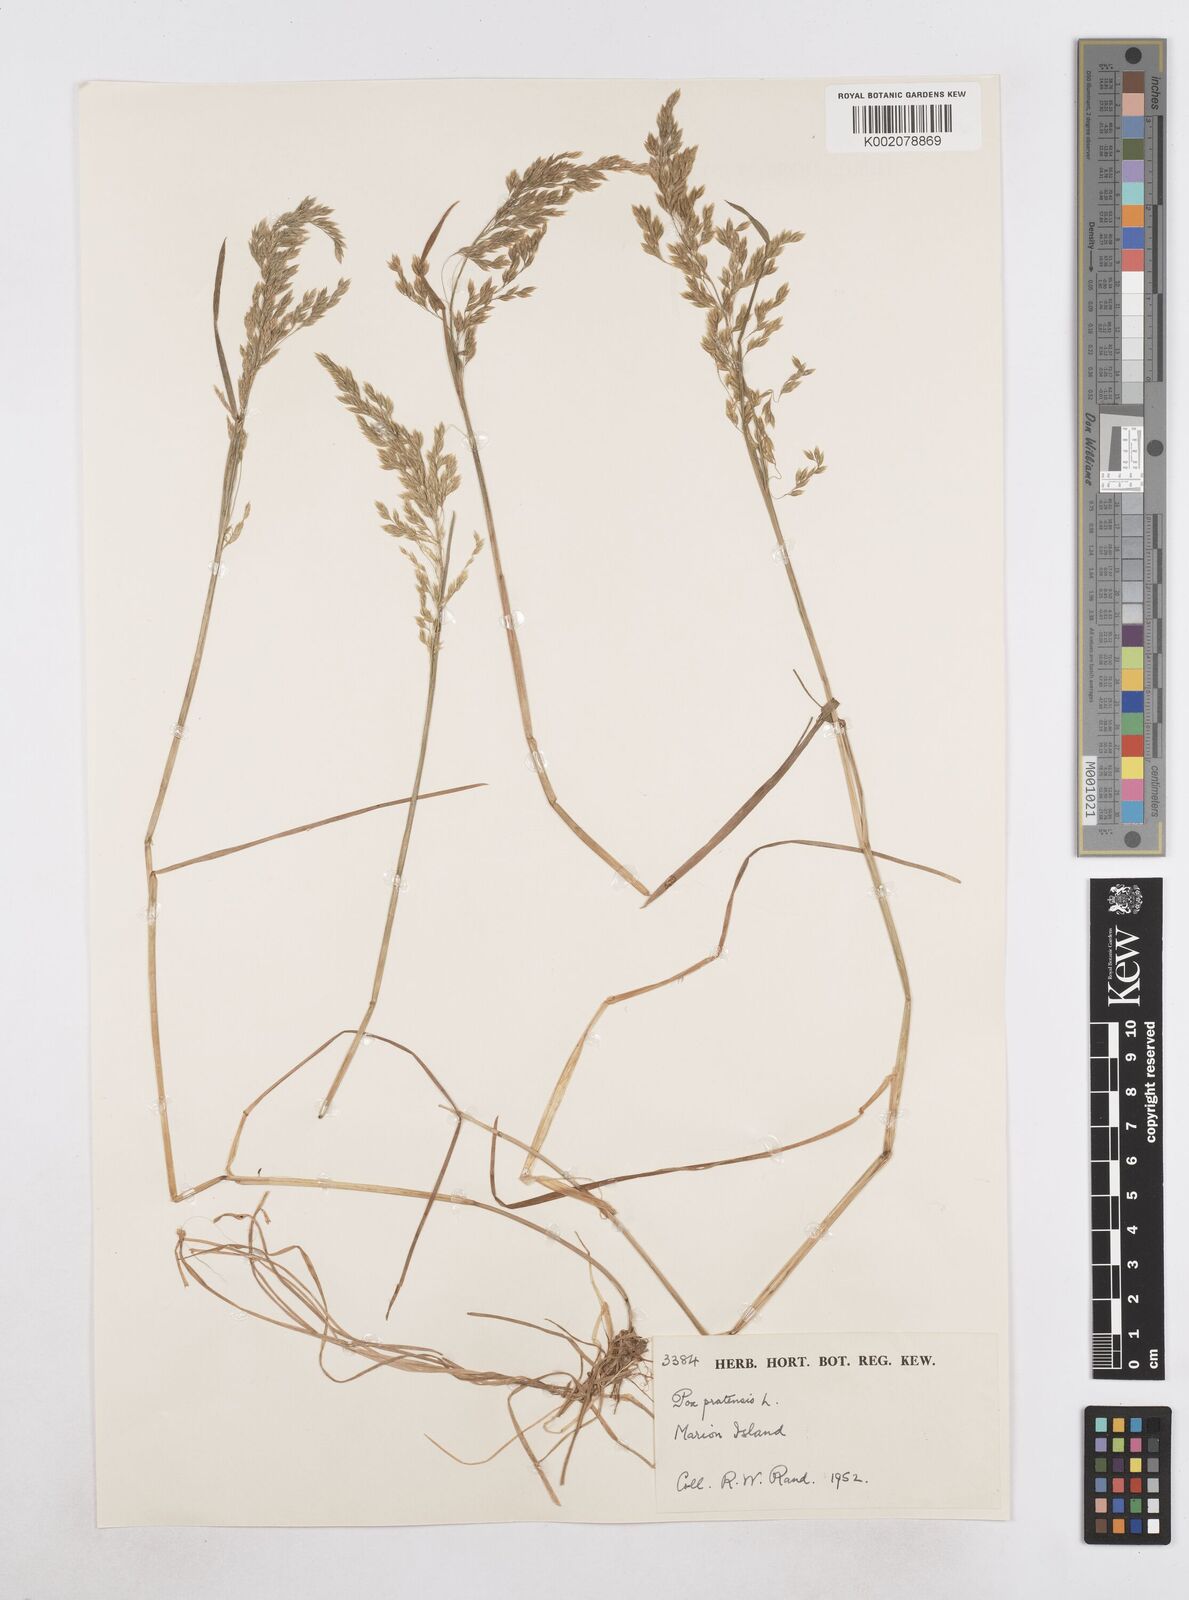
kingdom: Plantae
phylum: Tracheophyta
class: Liliopsida
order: Poales
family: Poaceae
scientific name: Poaceae
